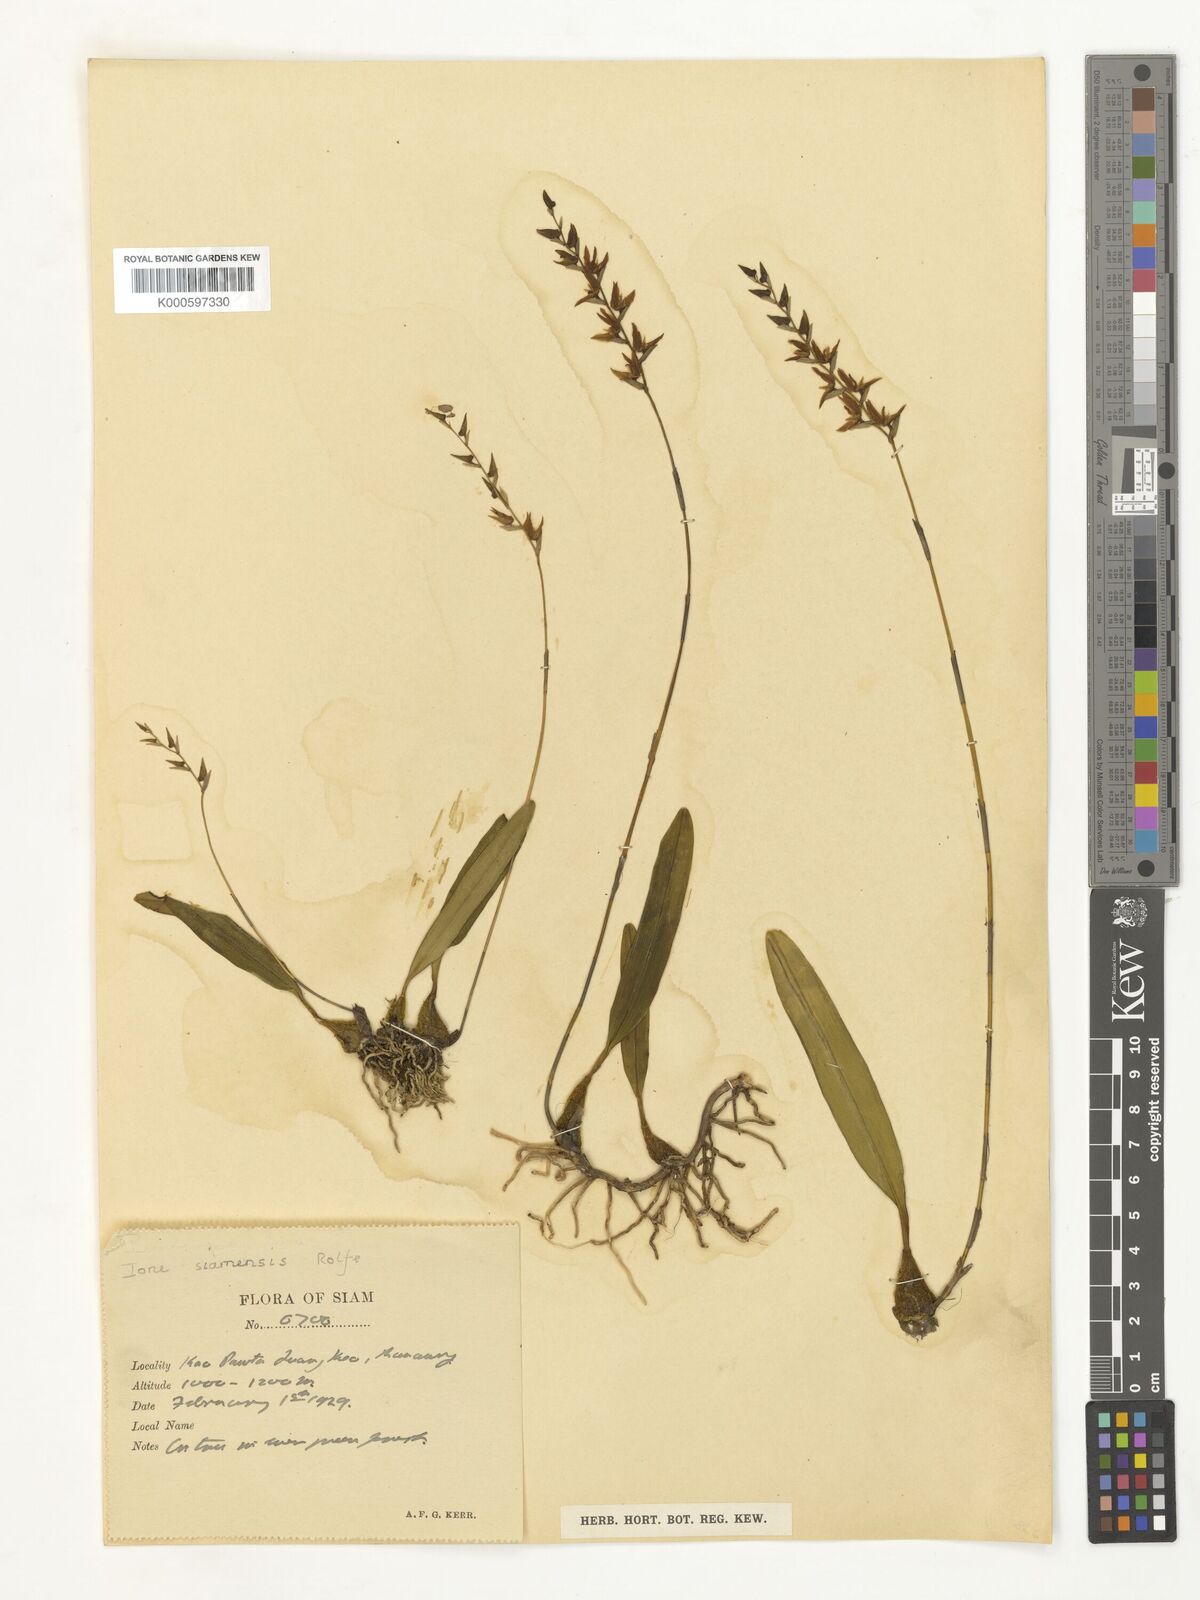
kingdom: Plantae
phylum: Tracheophyta
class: Liliopsida
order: Asparagales
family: Orchidaceae
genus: Bulbophyllum
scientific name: Bulbophyllum reptans
